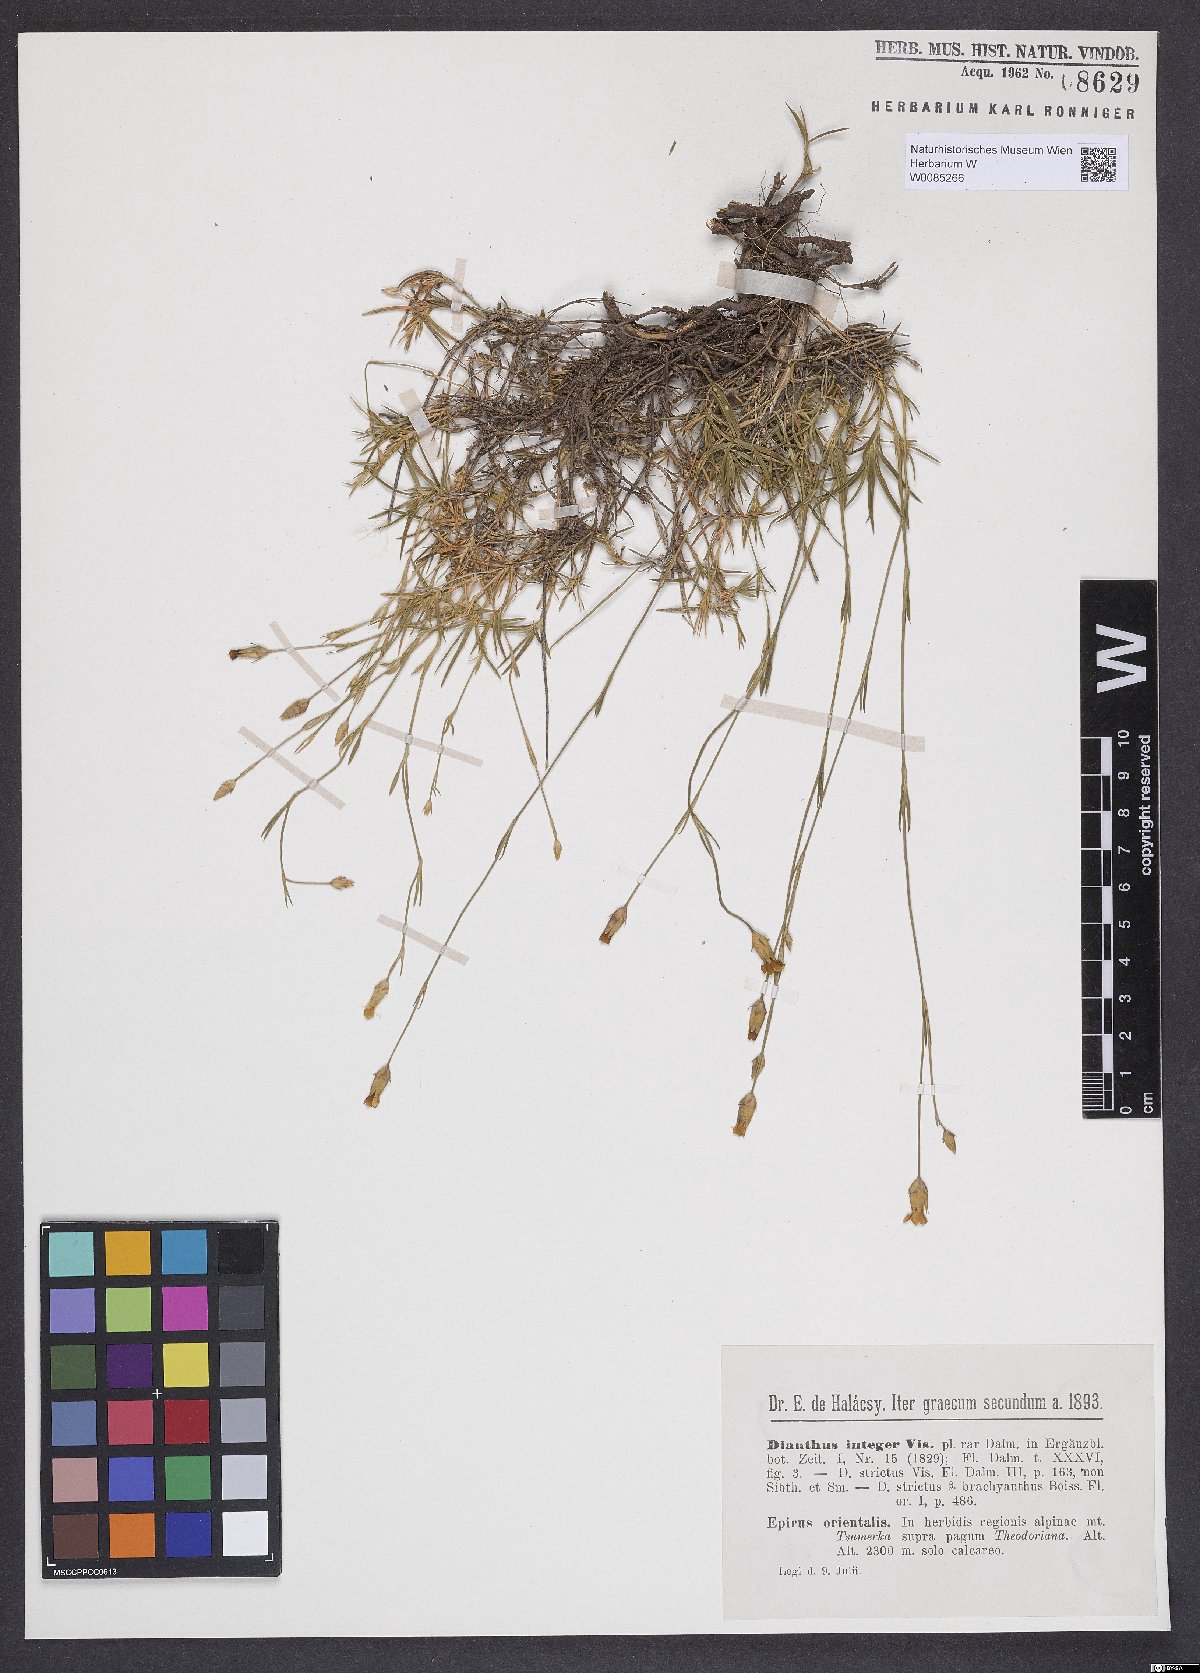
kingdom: Plantae
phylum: Tracheophyta
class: Magnoliopsida
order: Caryophyllales
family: Caryophyllaceae
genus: Dianthus
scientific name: Dianthus integer
